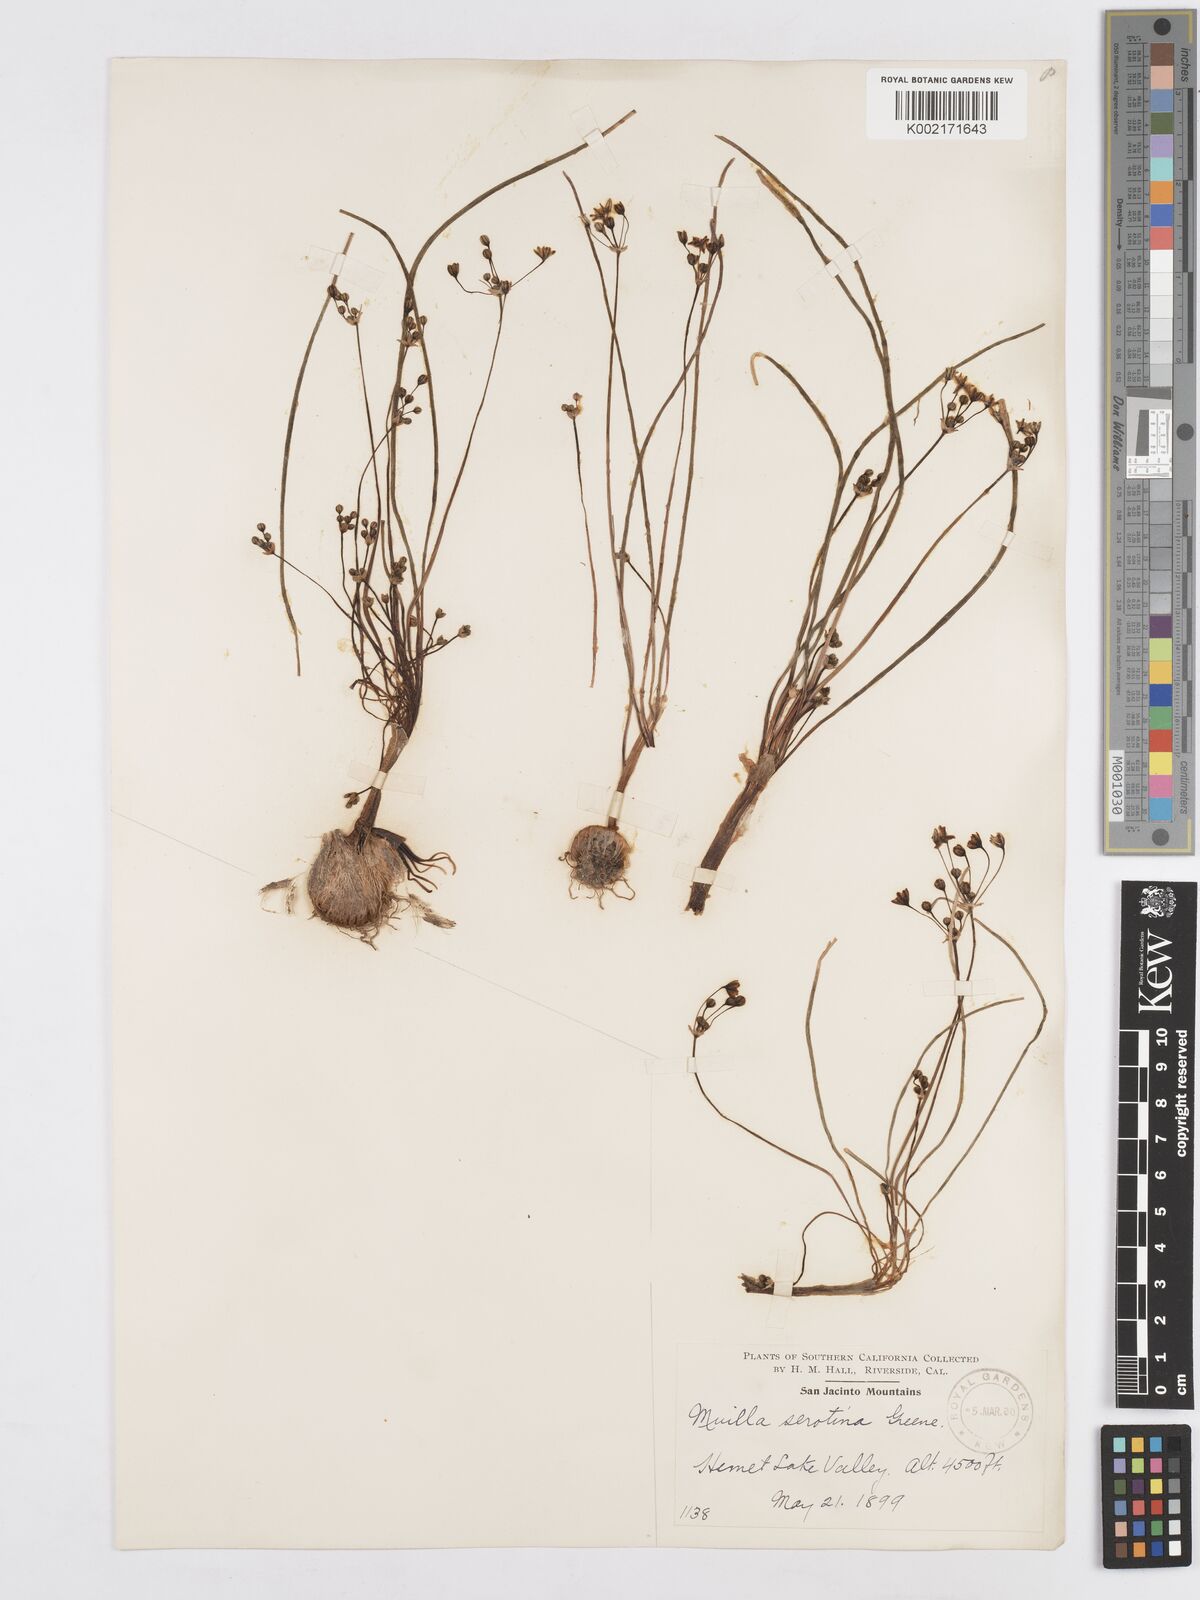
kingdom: Plantae
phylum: Tracheophyta
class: Liliopsida
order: Asparagales
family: Asparagaceae
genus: Muilla
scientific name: Muilla maritima
